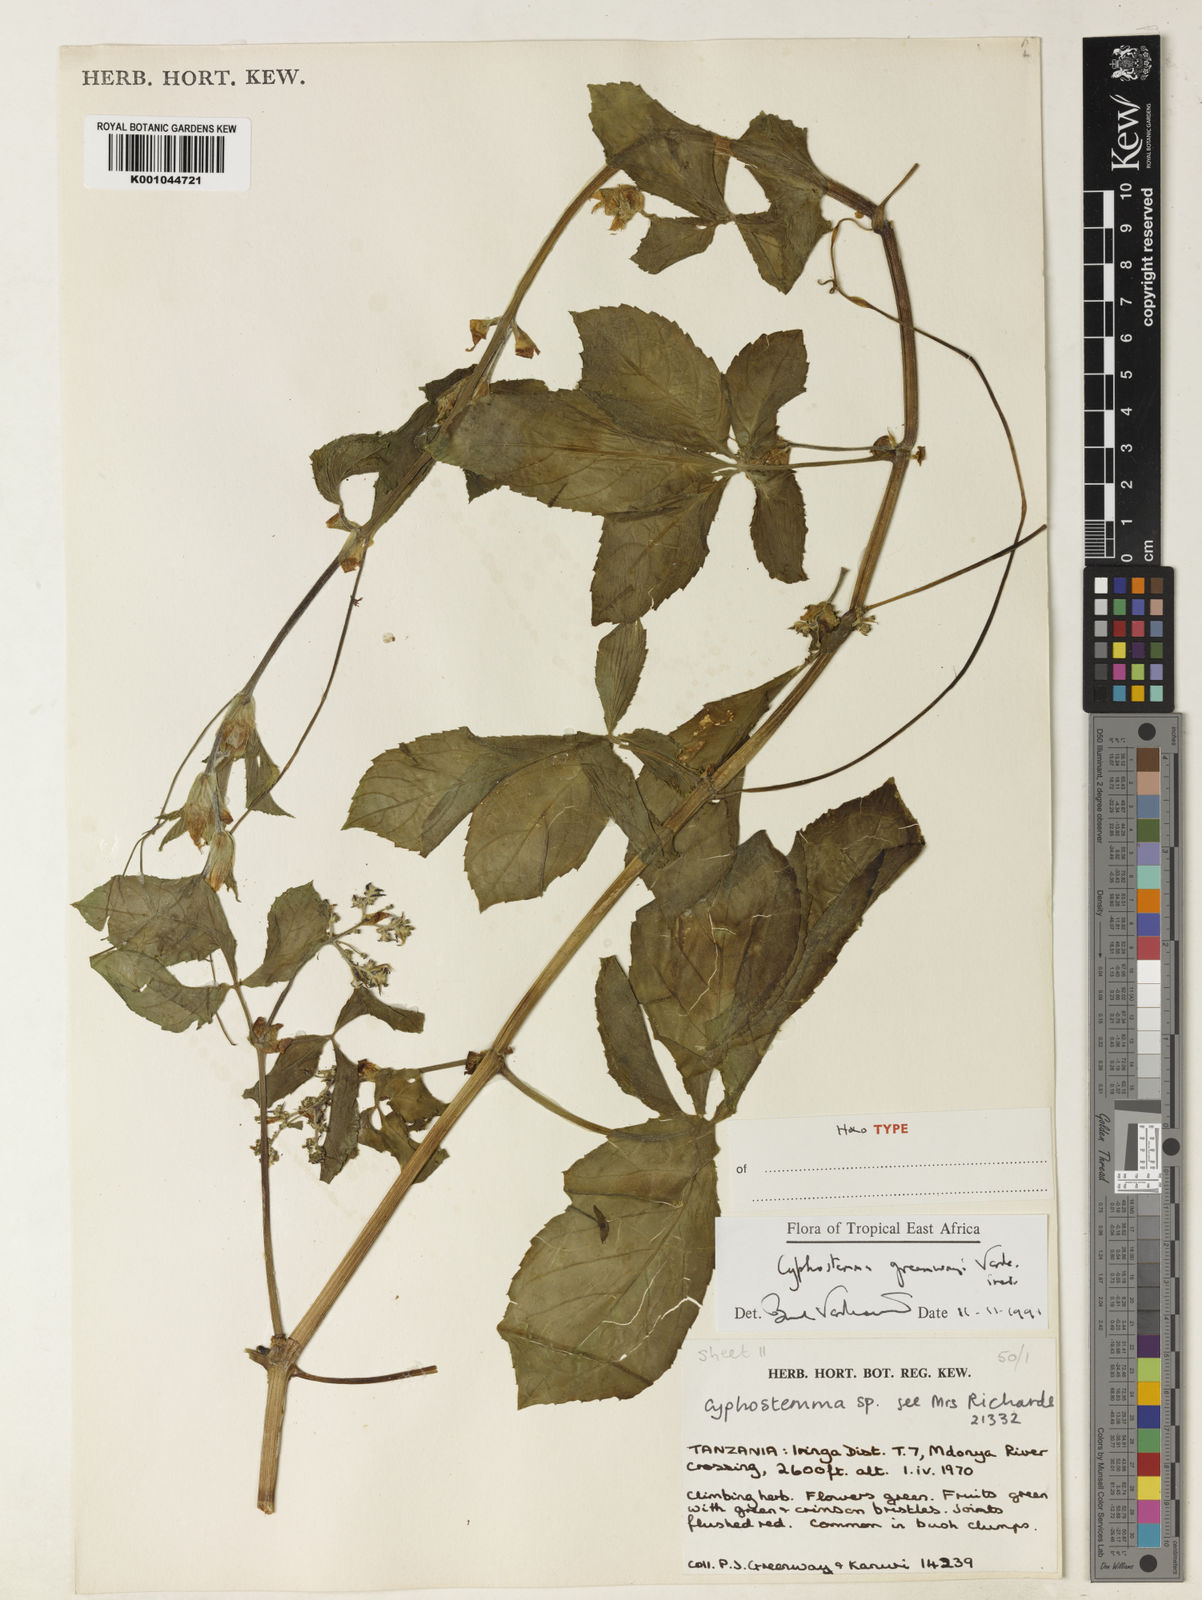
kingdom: Plantae
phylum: Tracheophyta
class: Magnoliopsida
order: Vitales
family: Vitaceae
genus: Cyphostemma
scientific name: Cyphostemma greenwayi
